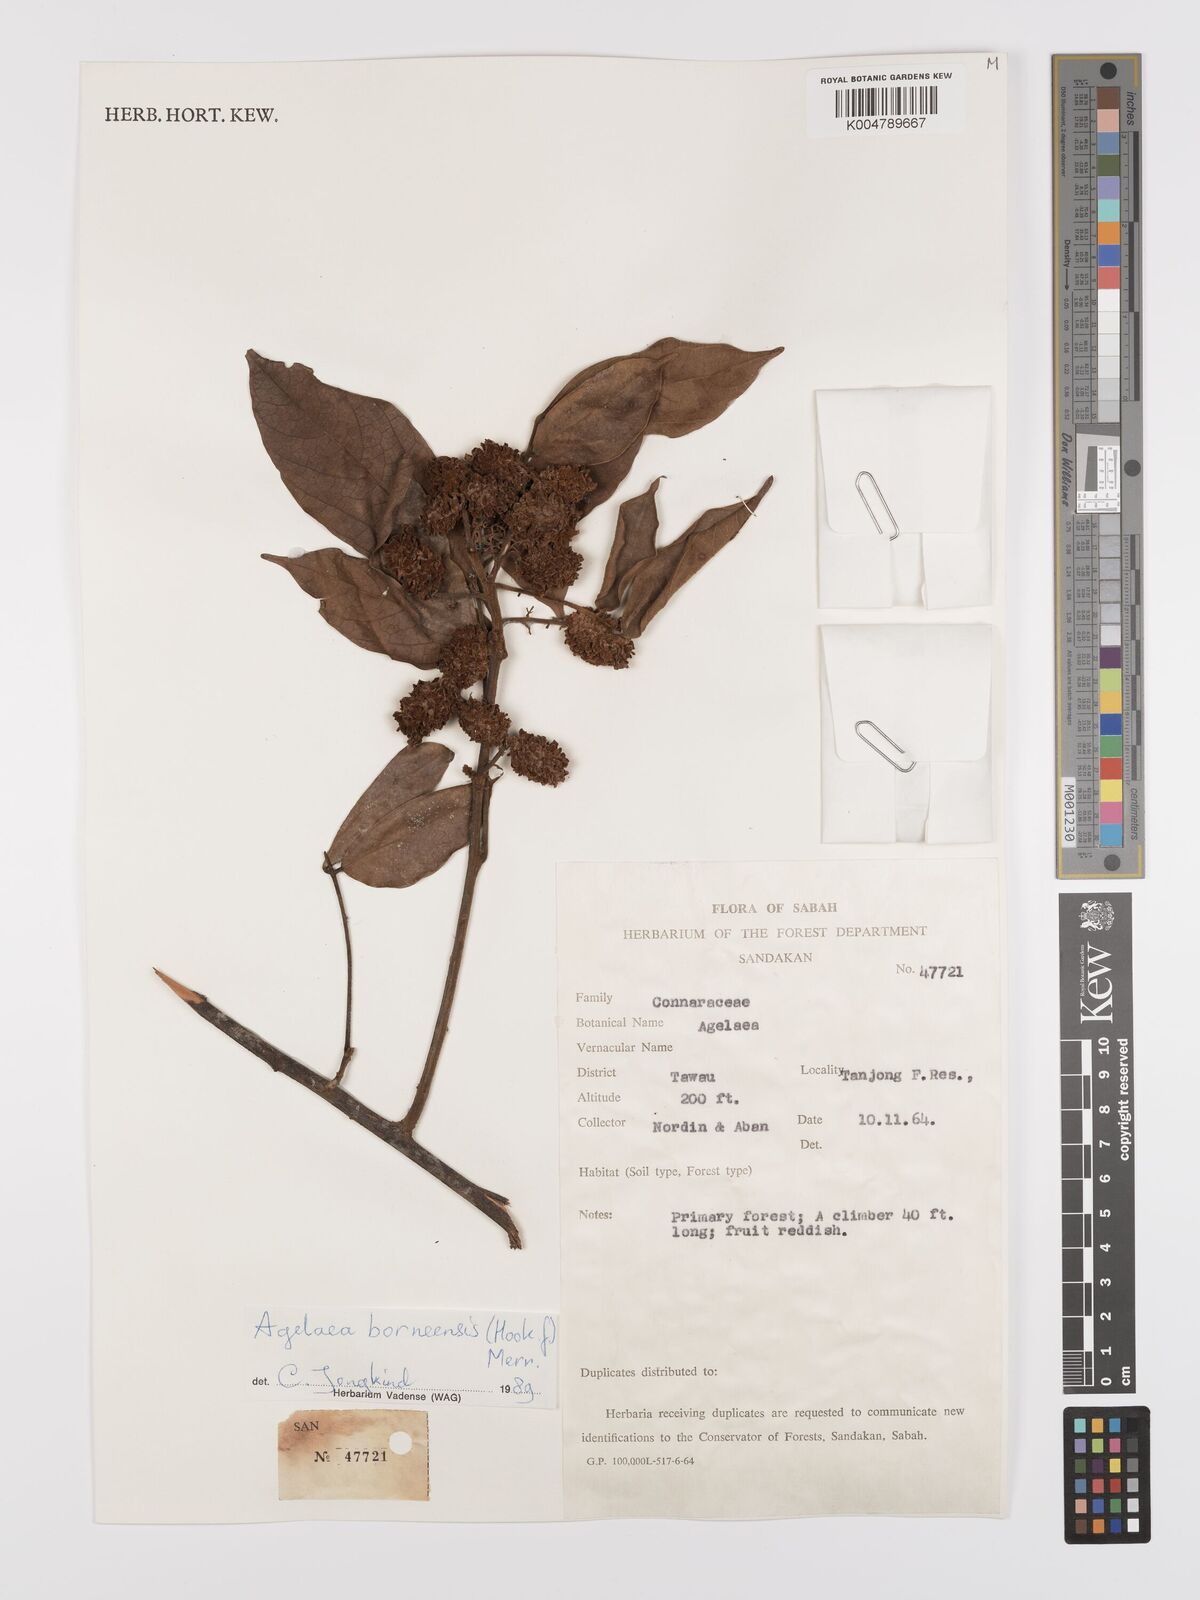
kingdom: Plantae
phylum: Tracheophyta
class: Magnoliopsida
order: Oxalidales
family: Connaraceae
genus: Agelaea
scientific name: Agelaea borneensis
